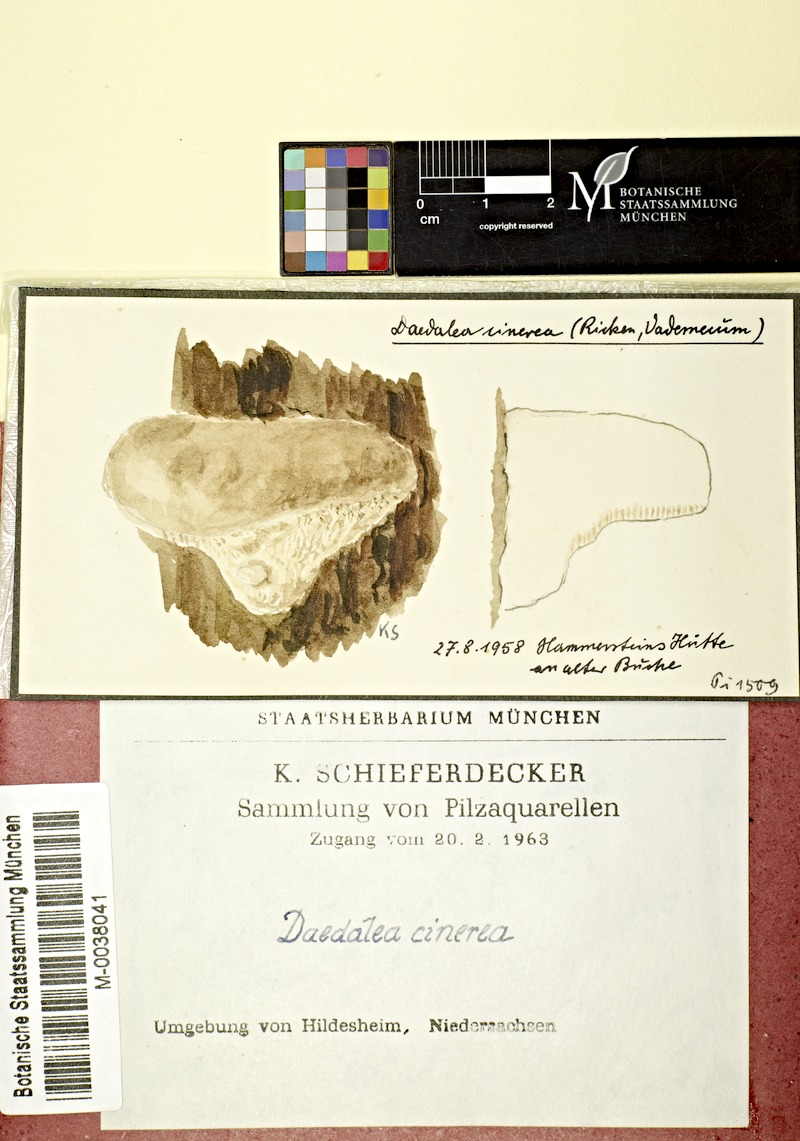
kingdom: Fungi
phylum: Basidiomycota
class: Agaricomycetes
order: Polyporales
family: Cerrenaceae
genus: Cerrena
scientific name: Cerrena unicolor
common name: Mossy maze polypore
